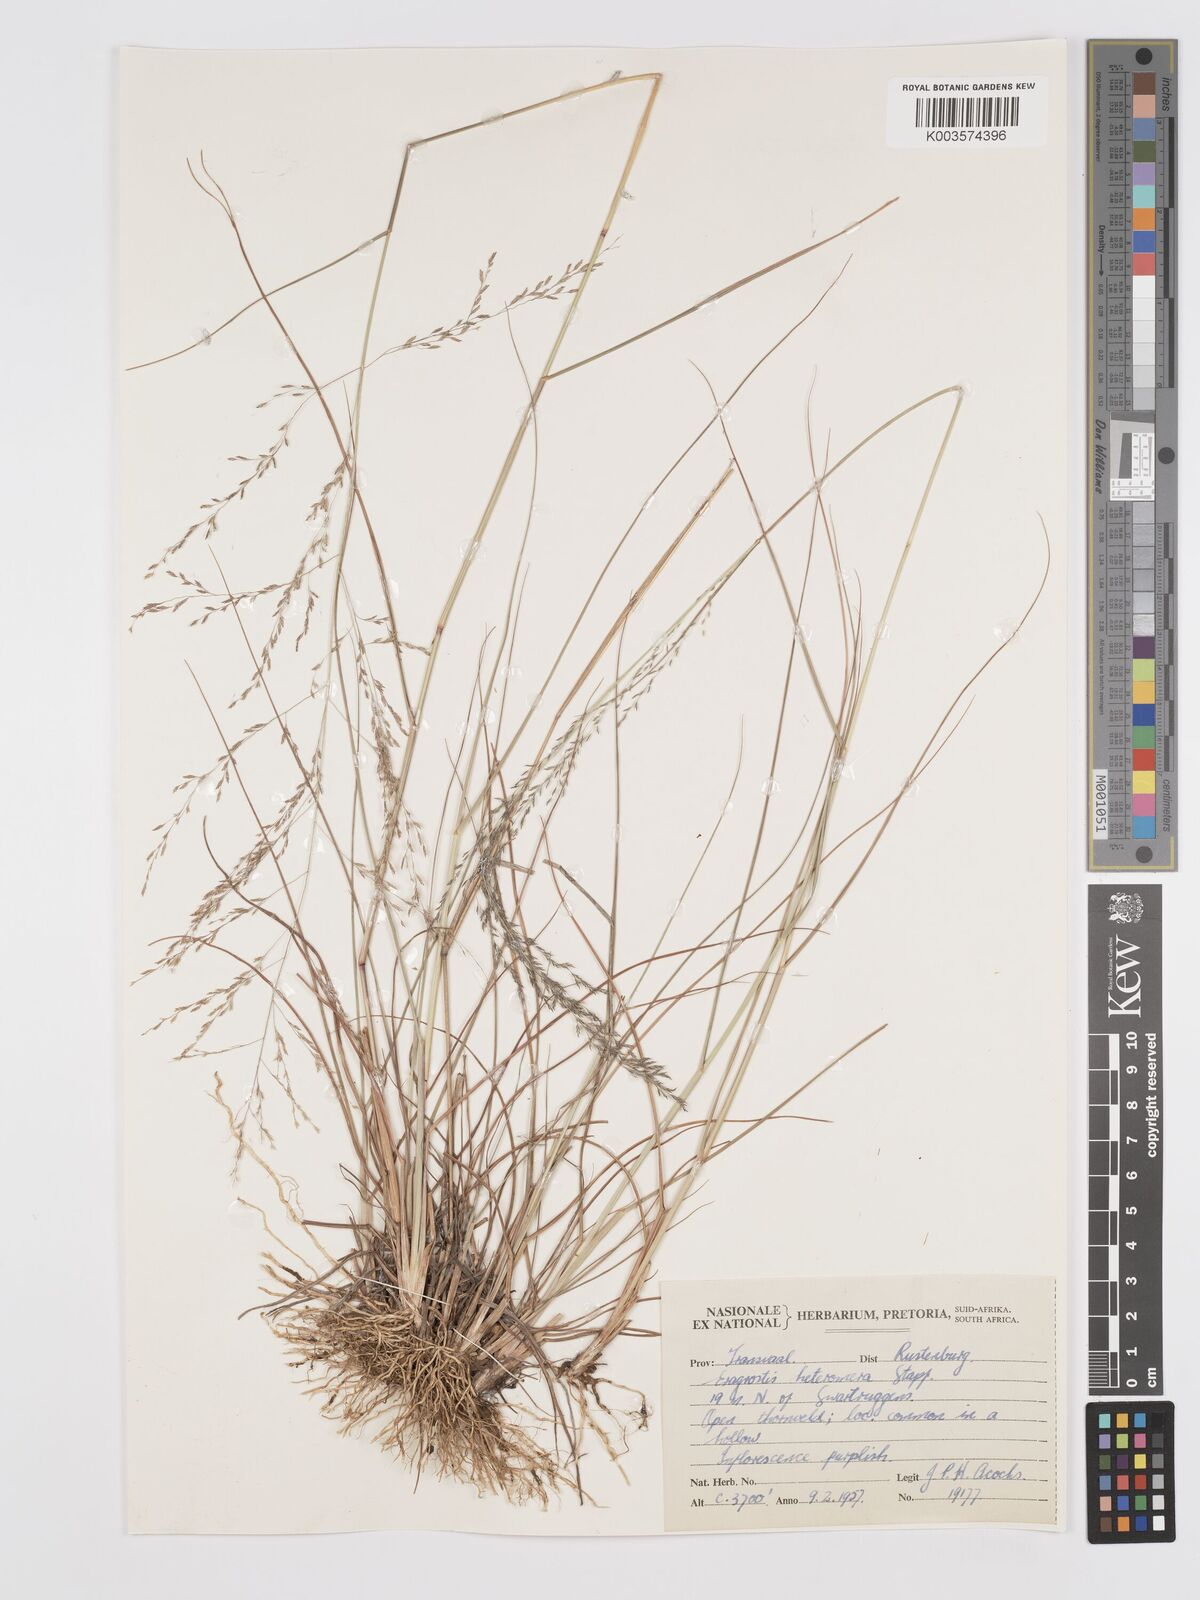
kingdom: Plantae
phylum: Tracheophyta
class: Liliopsida
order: Poales
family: Poaceae
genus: Eragrostis
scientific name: Eragrostis heteromera
